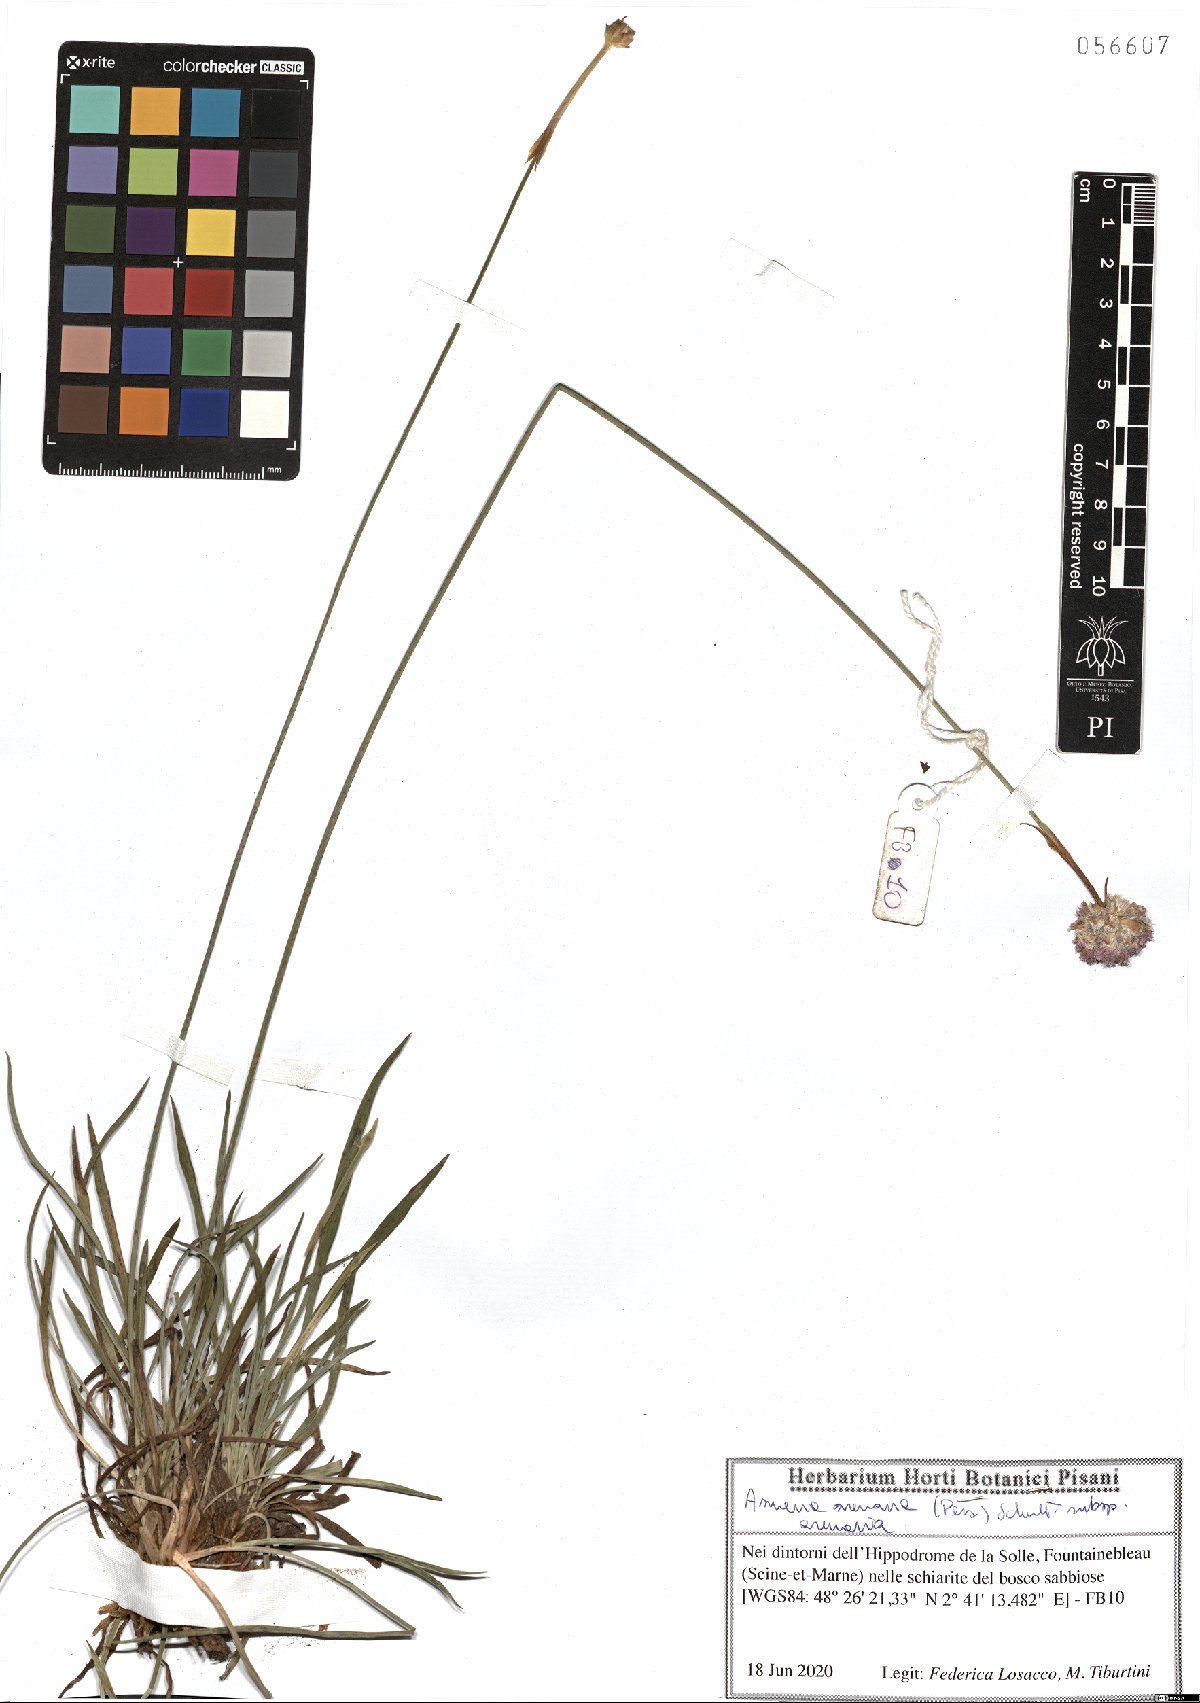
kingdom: Plantae
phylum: Tracheophyta
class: Magnoliopsida
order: Caryophyllales
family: Plumbaginaceae
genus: Armeria
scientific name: Armeria arenaria
